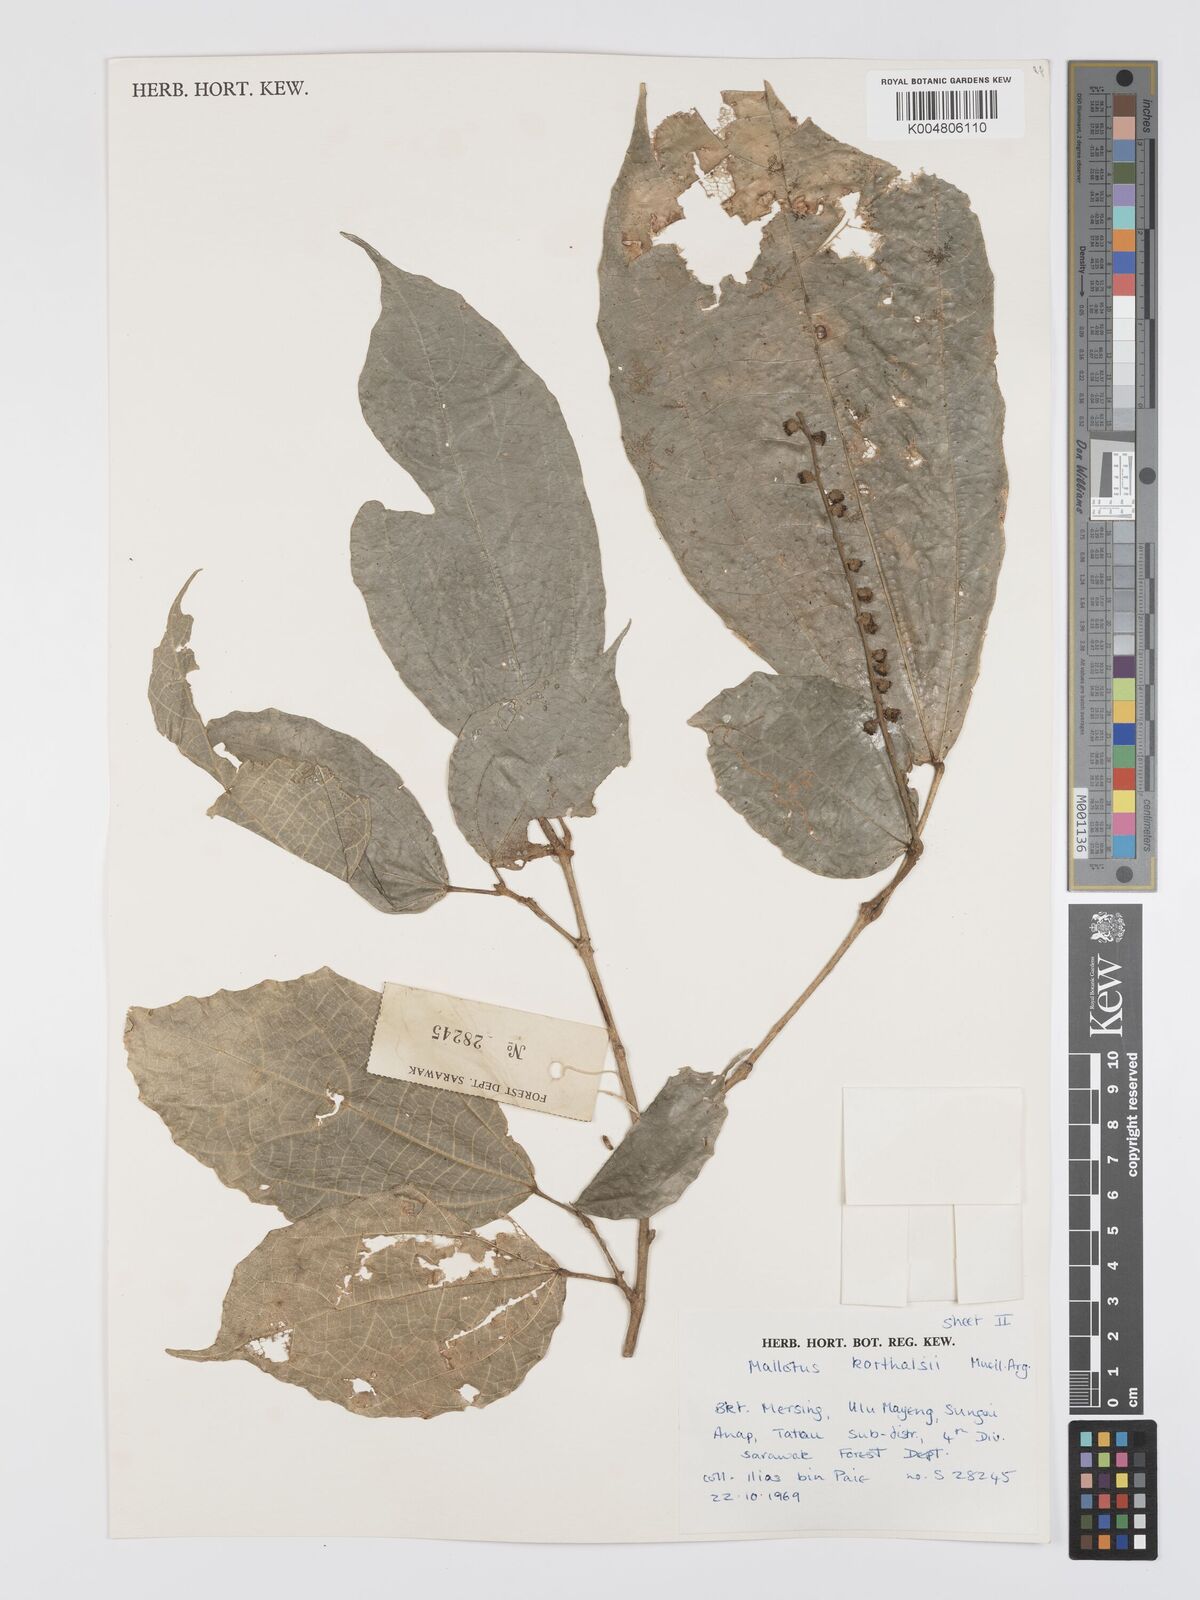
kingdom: Plantae
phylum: Tracheophyta
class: Magnoliopsida
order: Malpighiales
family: Euphorbiaceae
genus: Mallotus
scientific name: Mallotus korthalsii
